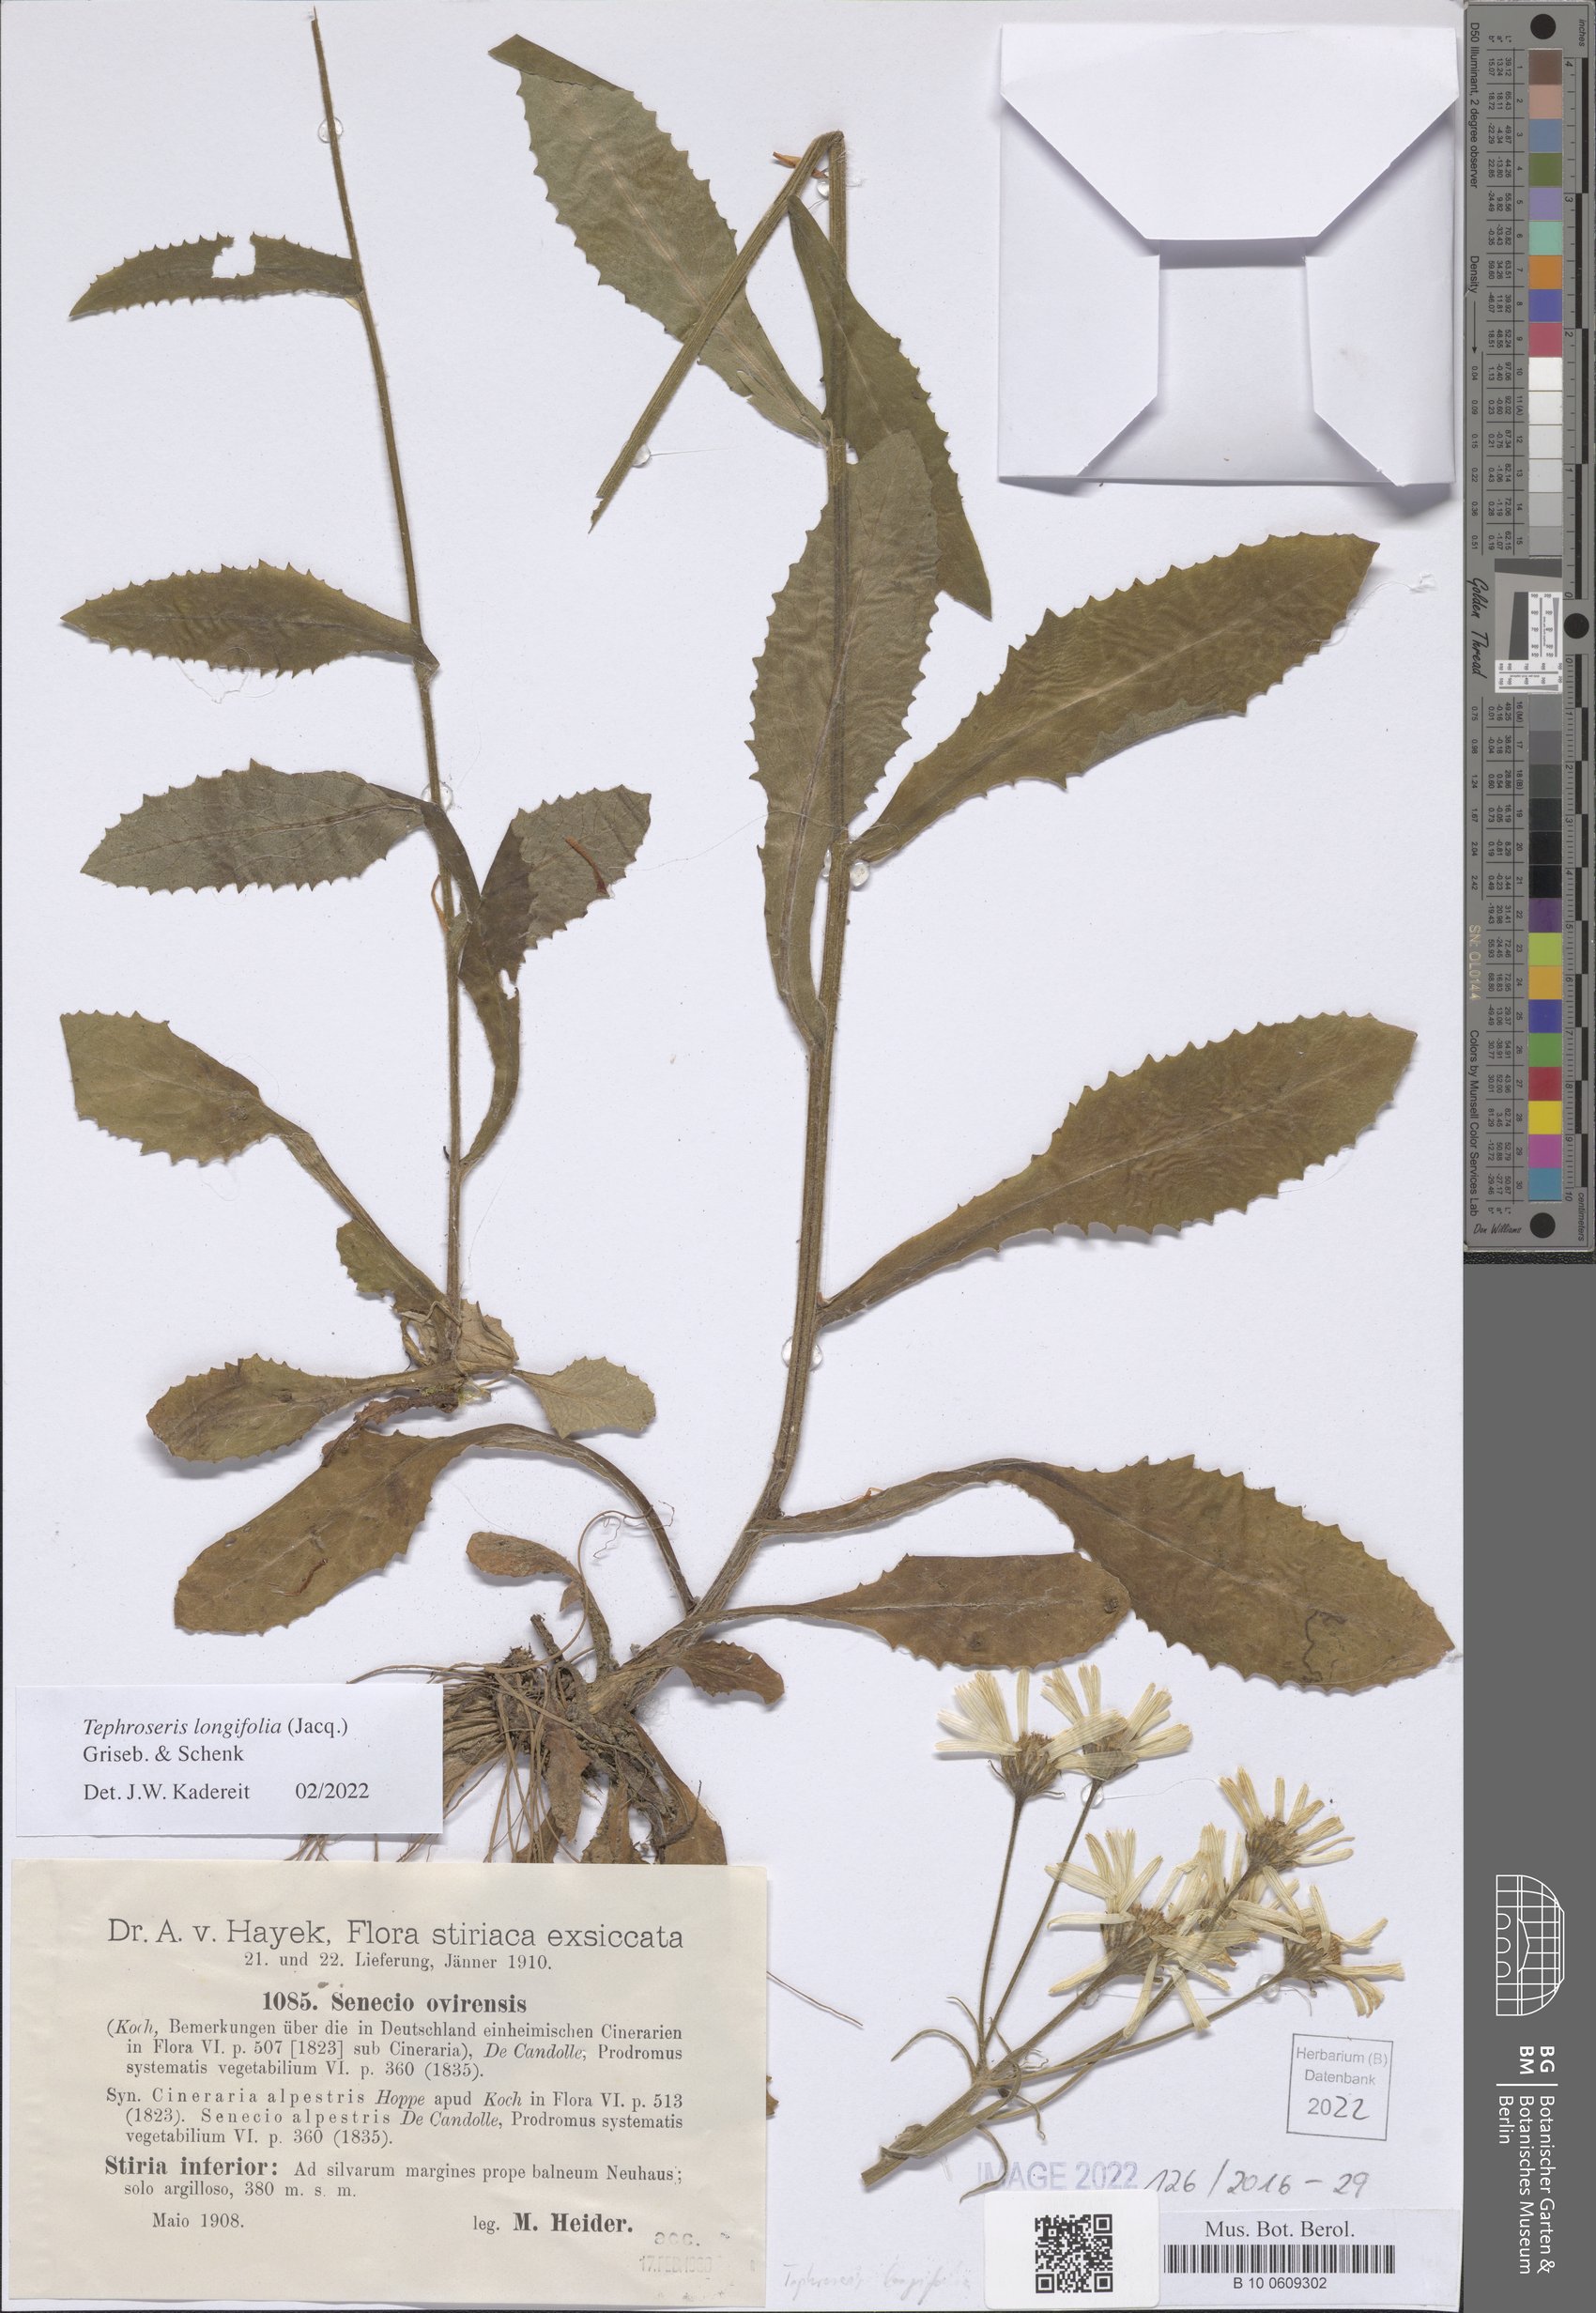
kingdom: Plantae
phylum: Tracheophyta
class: Magnoliopsida
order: Asterales
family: Asteraceae
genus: Tephroseris
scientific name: Tephroseris longifolia
